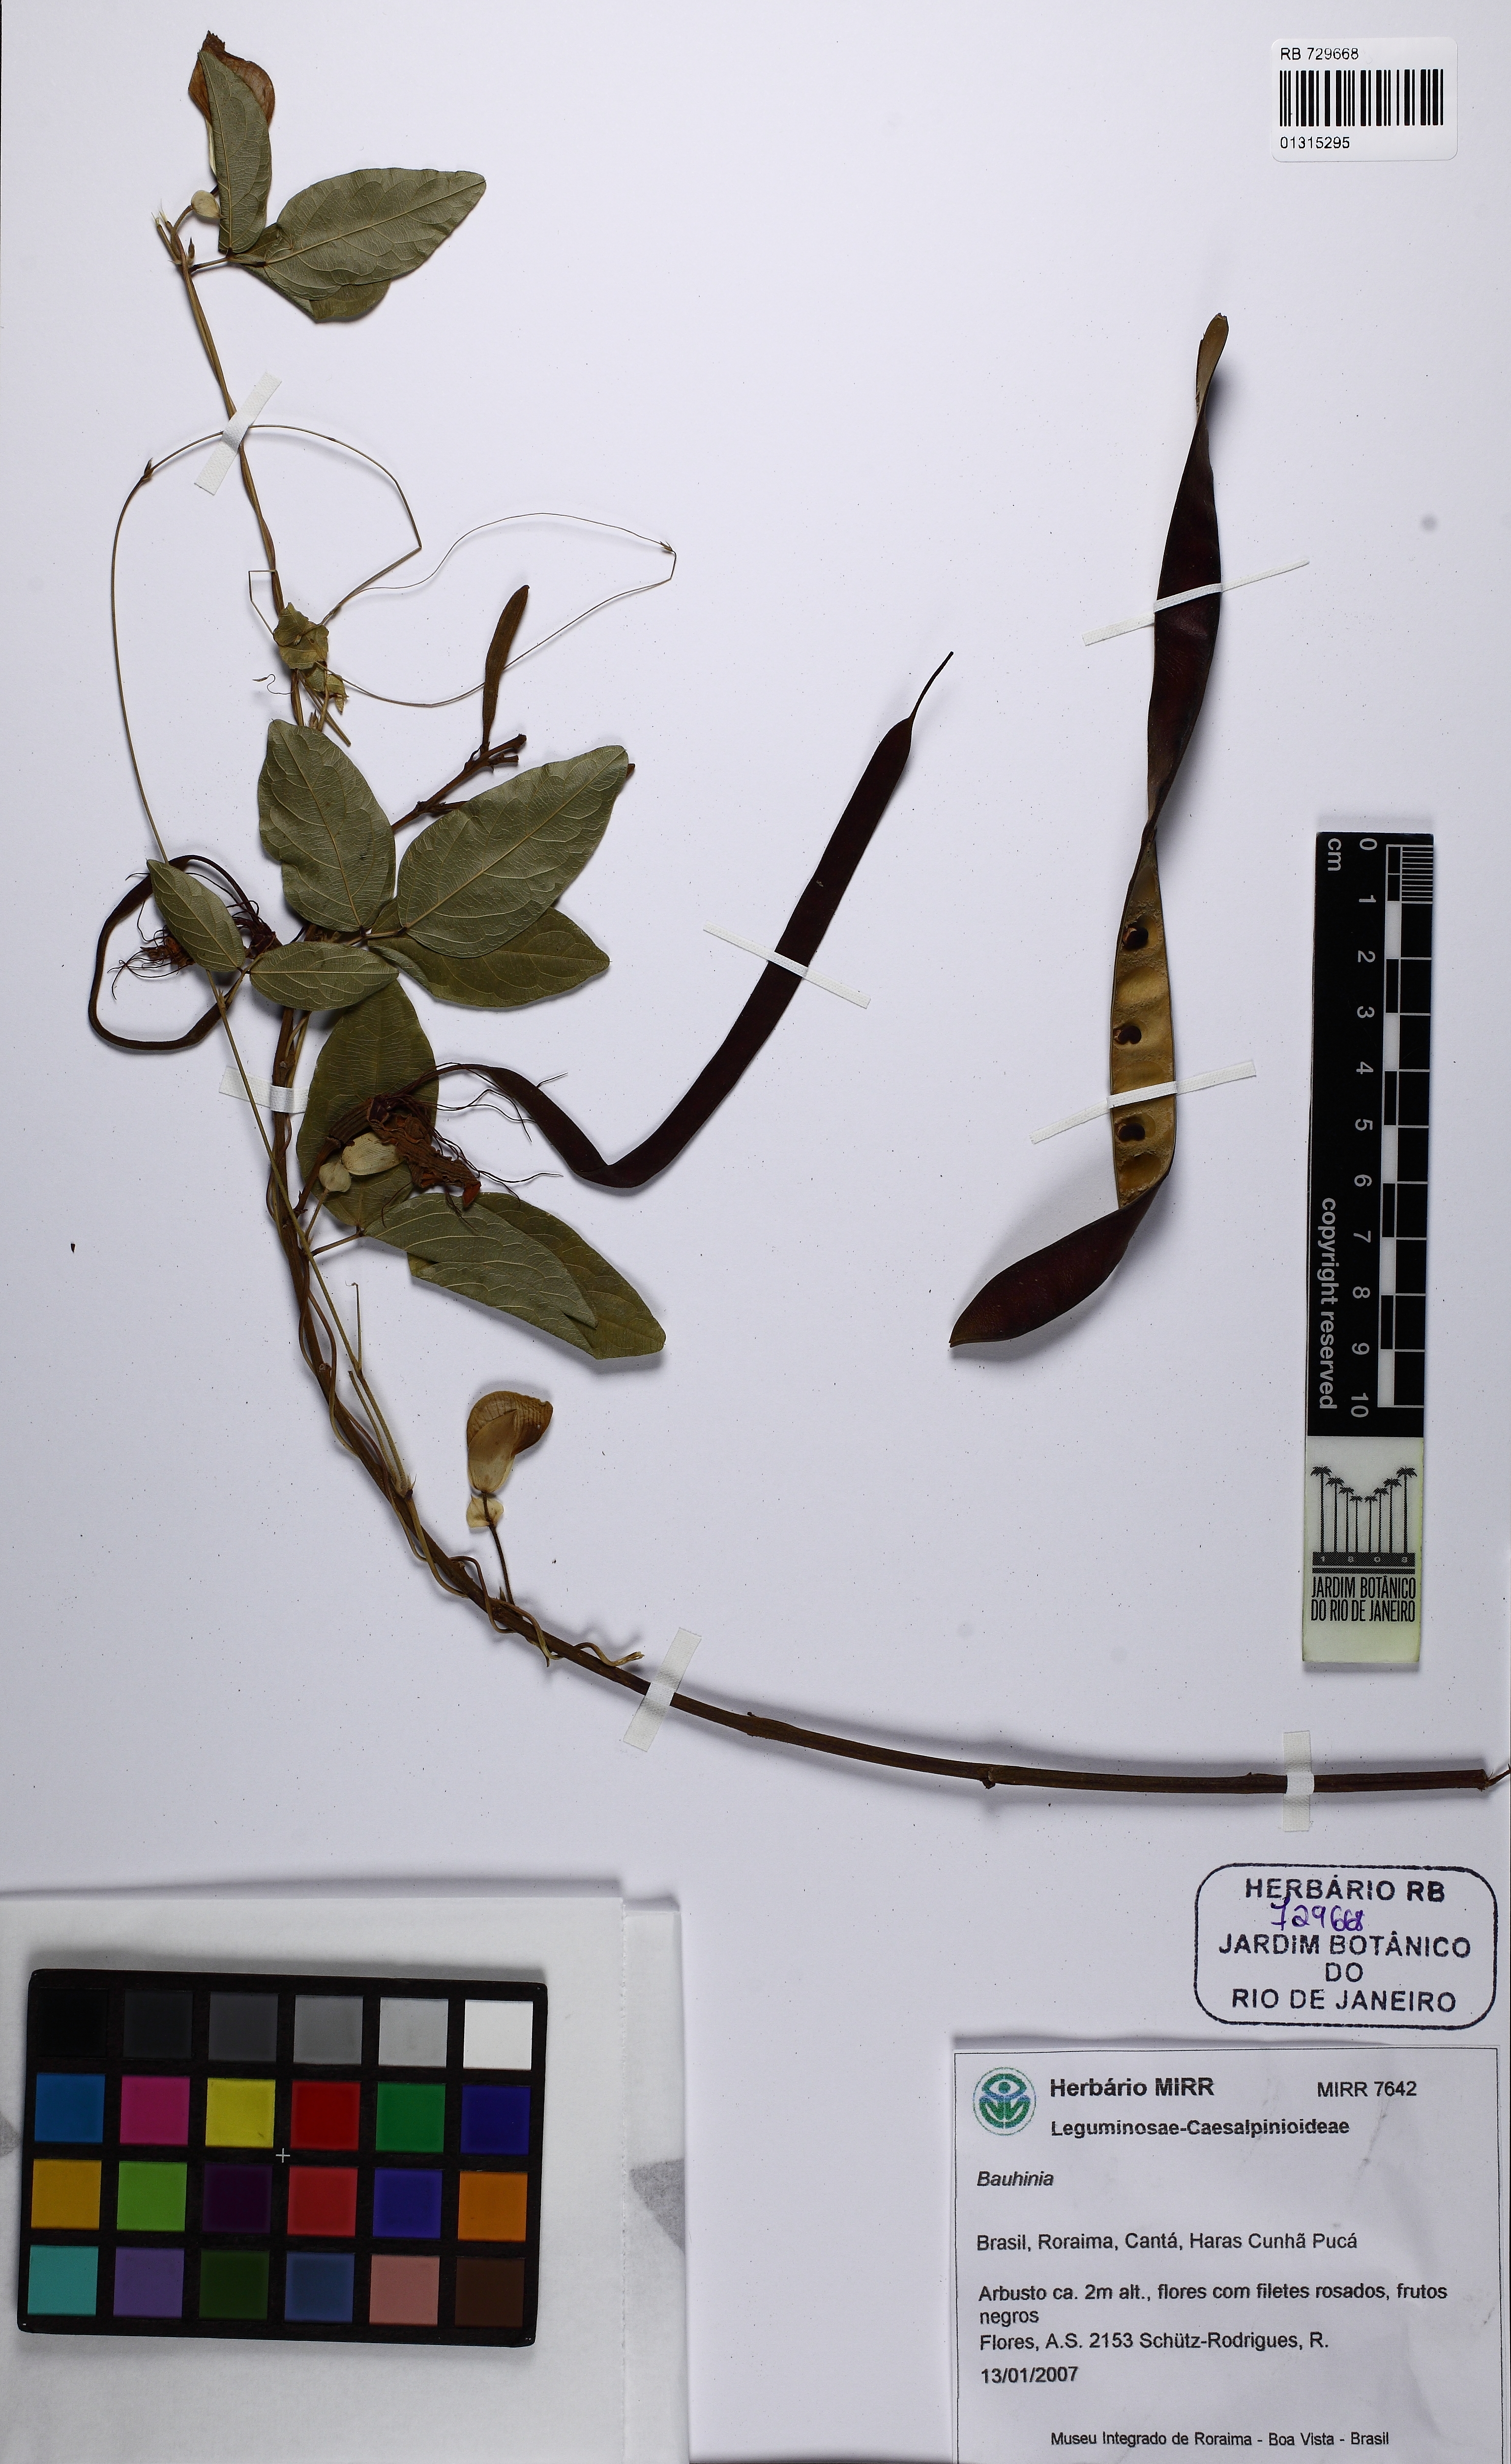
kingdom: Plantae
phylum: Tracheophyta
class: Magnoliopsida
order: Fabales
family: Fabaceae
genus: Bauhinia
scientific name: Bauhinia
